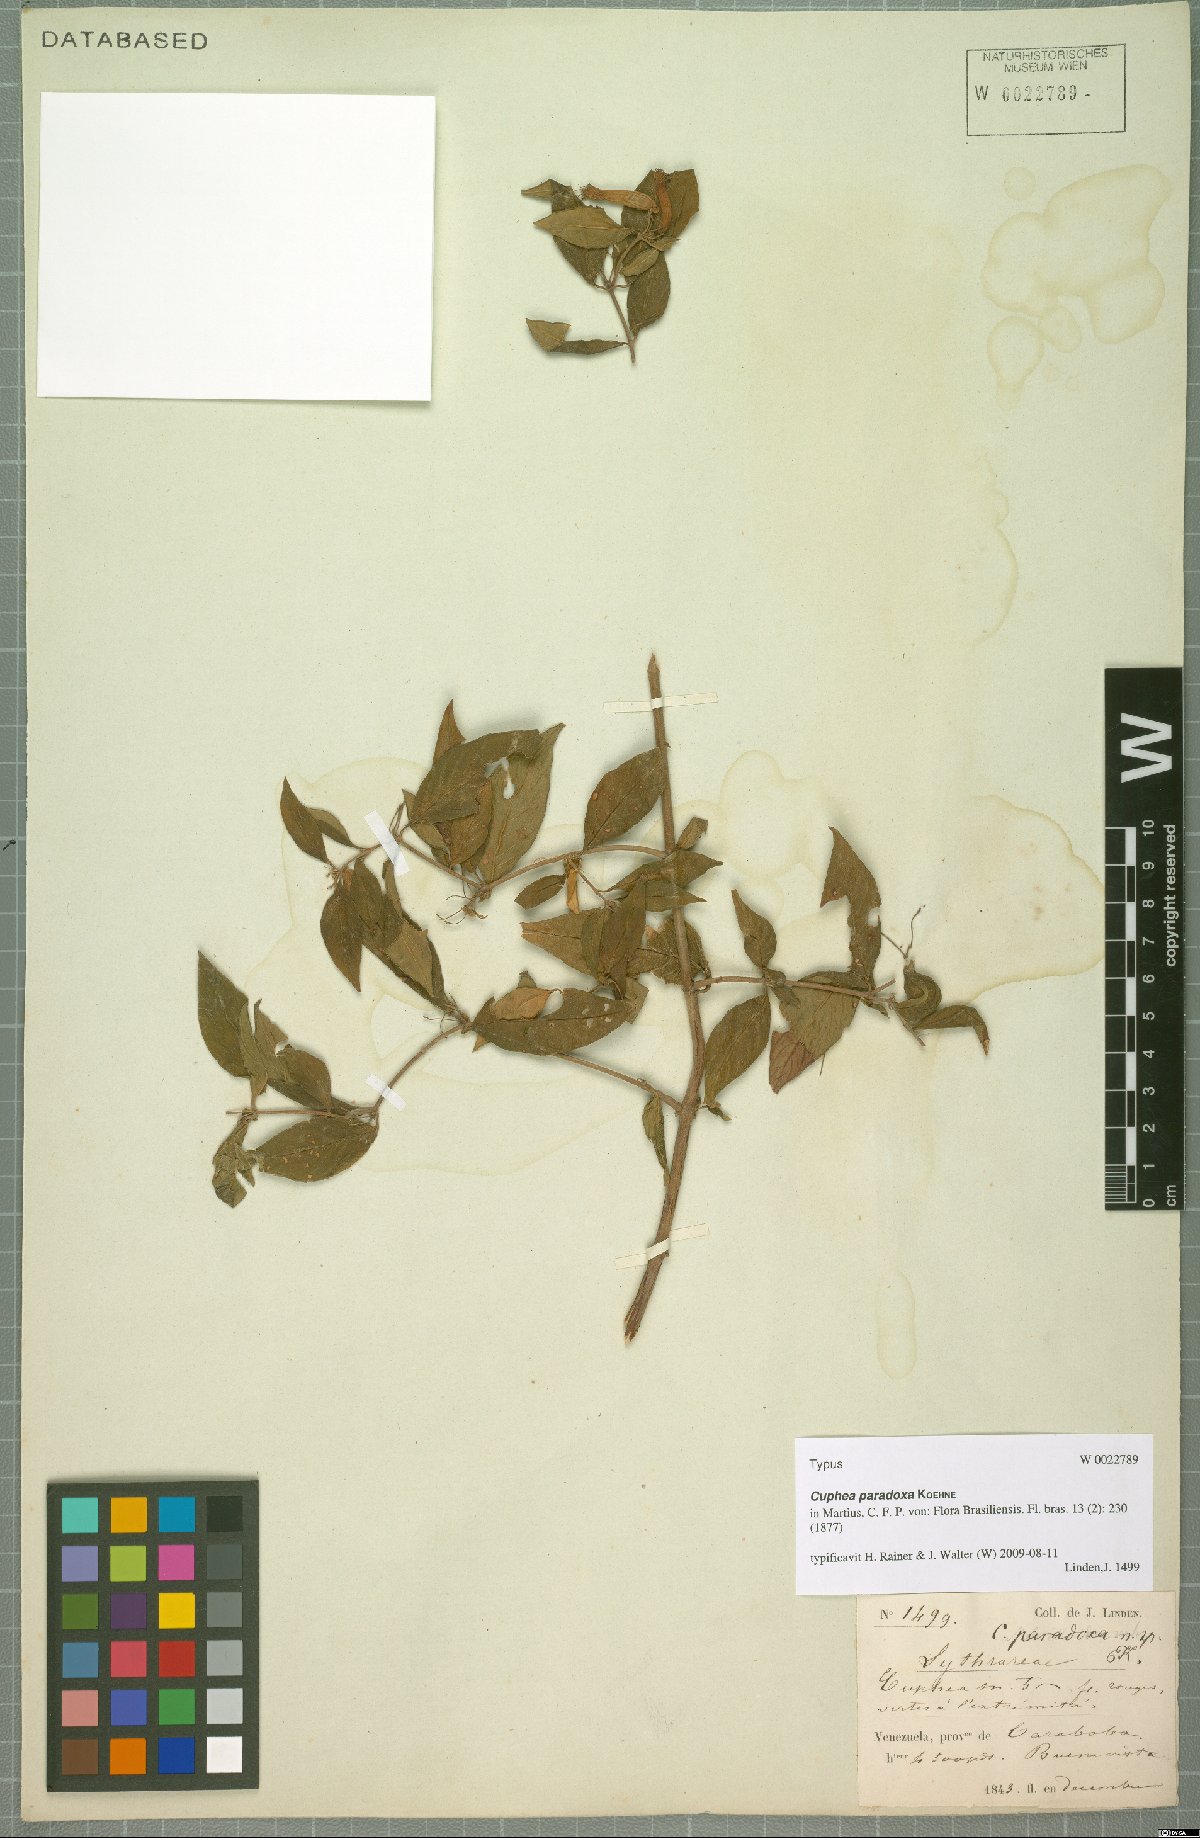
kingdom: Plantae
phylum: Tracheophyta
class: Magnoliopsida
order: Myrtales
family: Lythraceae
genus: Cuphea
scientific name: Cuphea paradoxa
